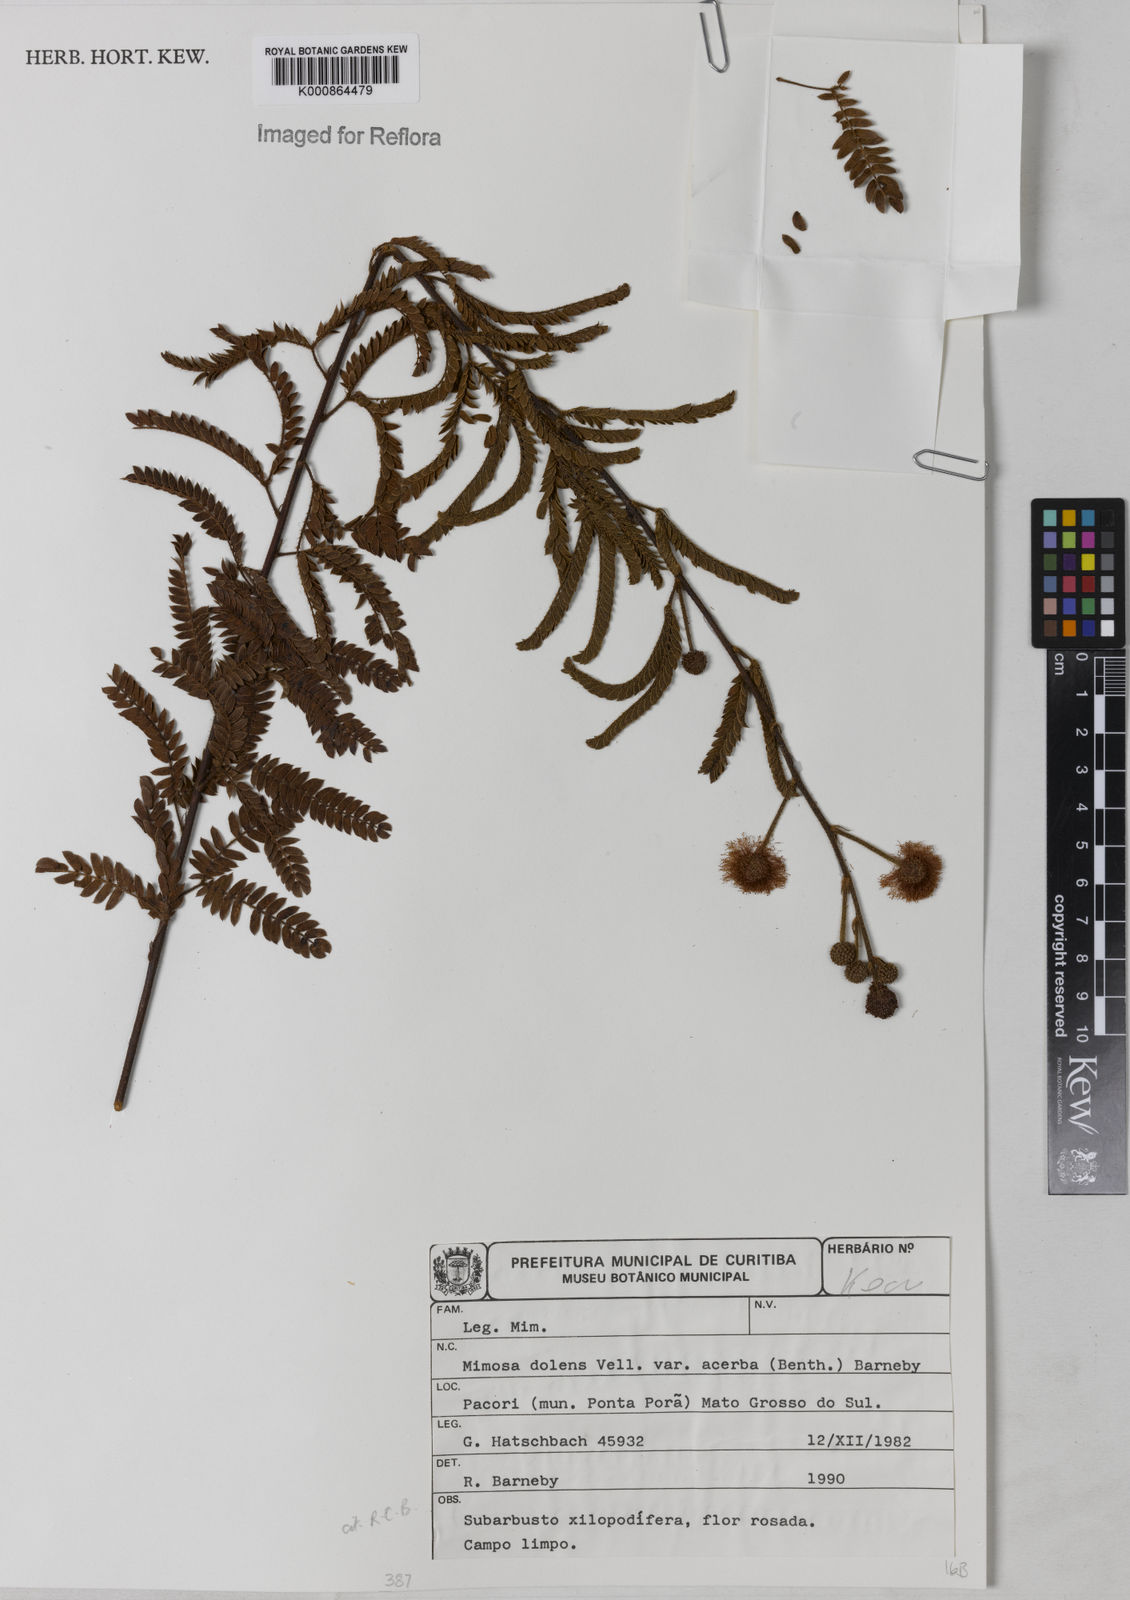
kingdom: Plantae
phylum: Tracheophyta
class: Magnoliopsida
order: Fabales
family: Fabaceae
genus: Mimosa
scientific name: Mimosa dolens
